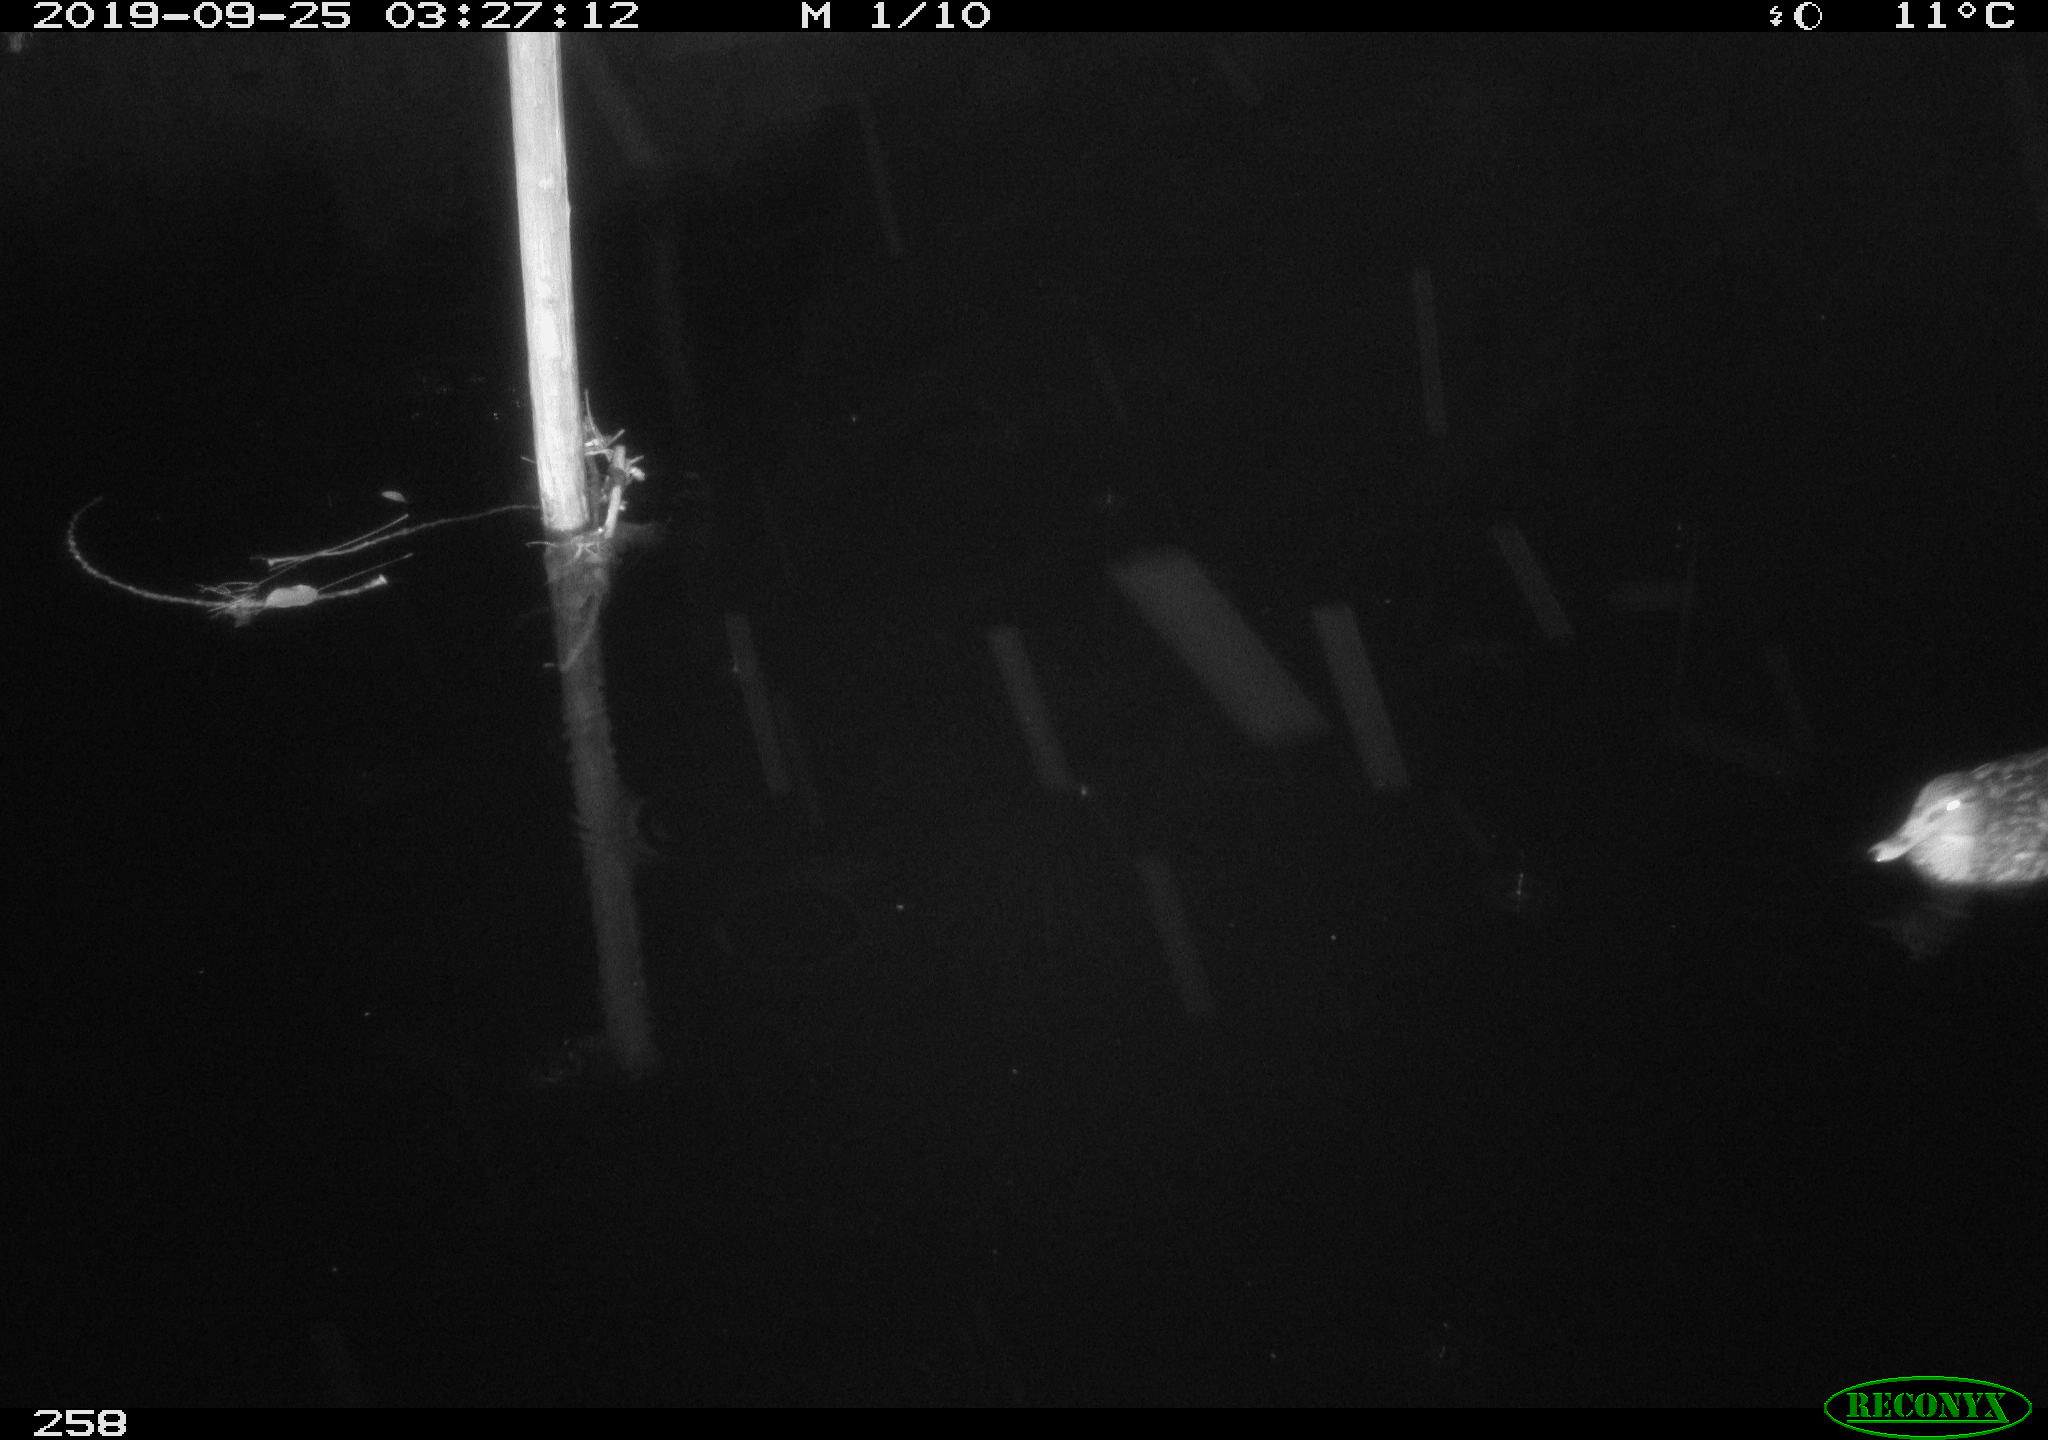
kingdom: Animalia
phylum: Chordata
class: Aves
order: Anseriformes
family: Anatidae
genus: Anas
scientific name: Anas platyrhynchos
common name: Mallard
